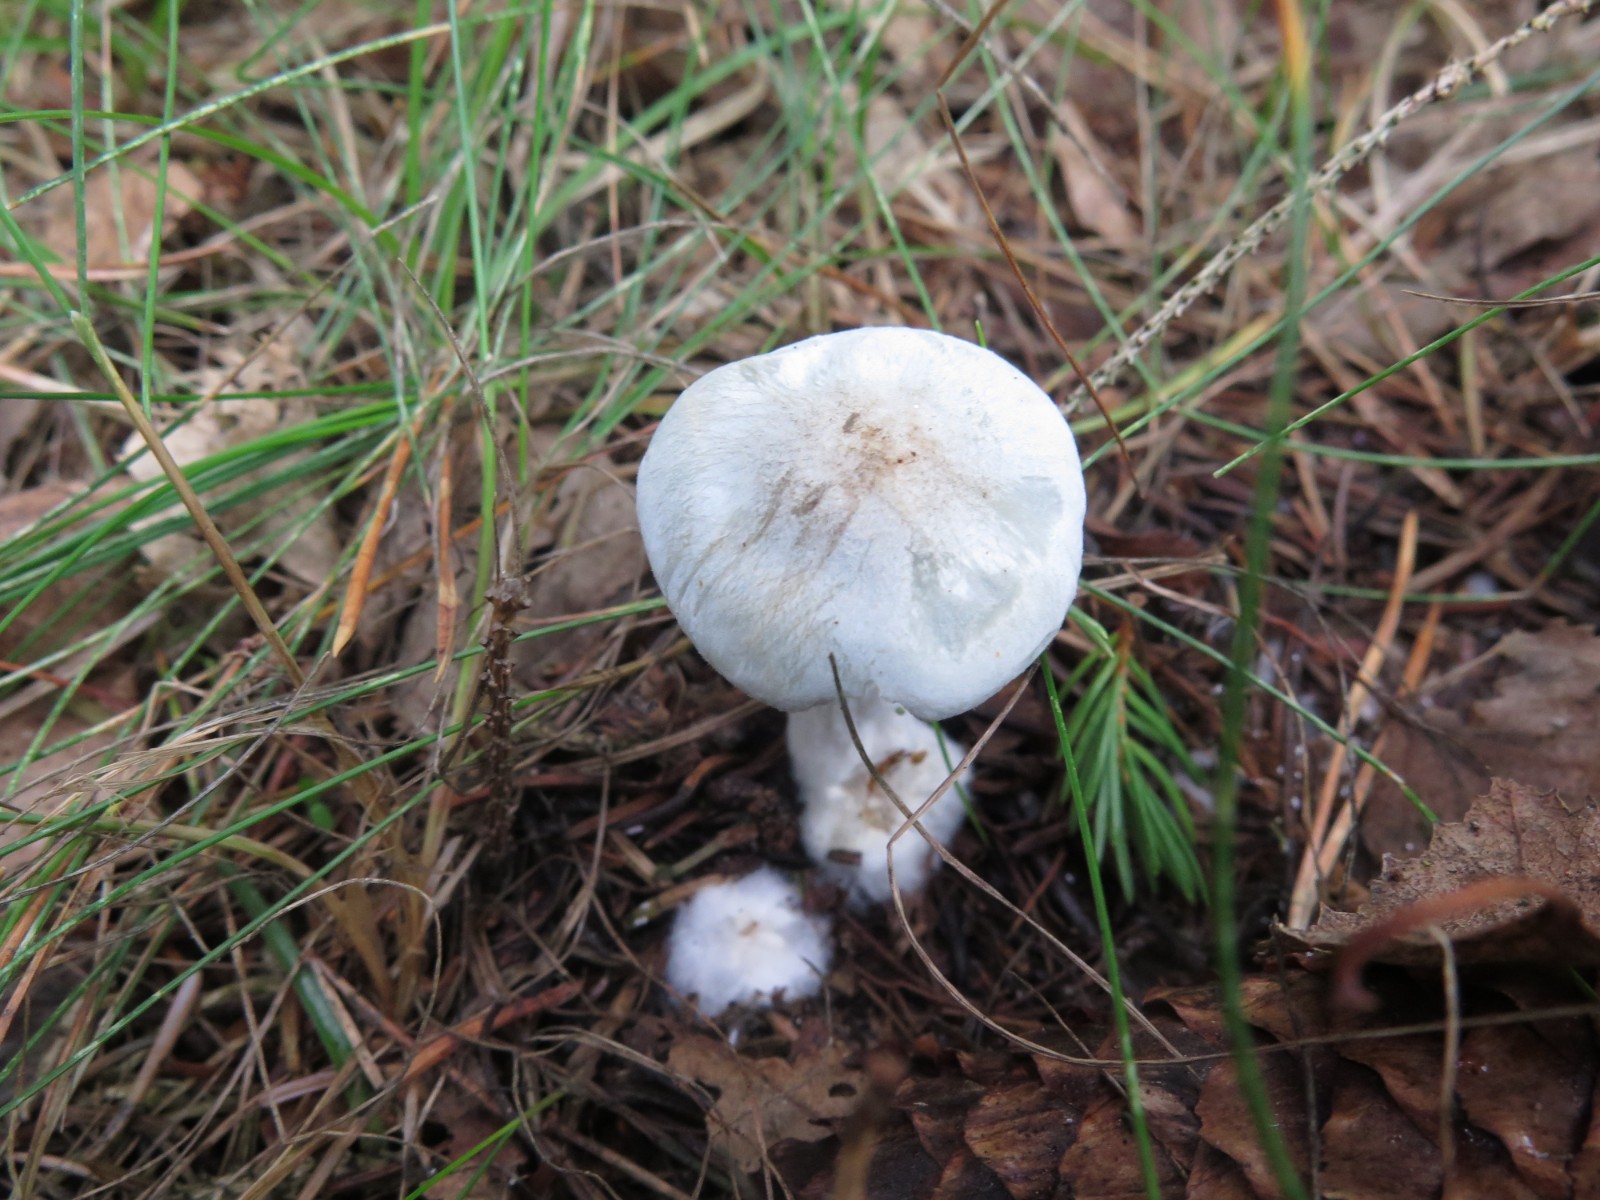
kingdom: Fungi
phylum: Basidiomycota
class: Agaricomycetes
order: Agaricales
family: Tricholomataceae
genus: Clitocybe
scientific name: Clitocybe odora
